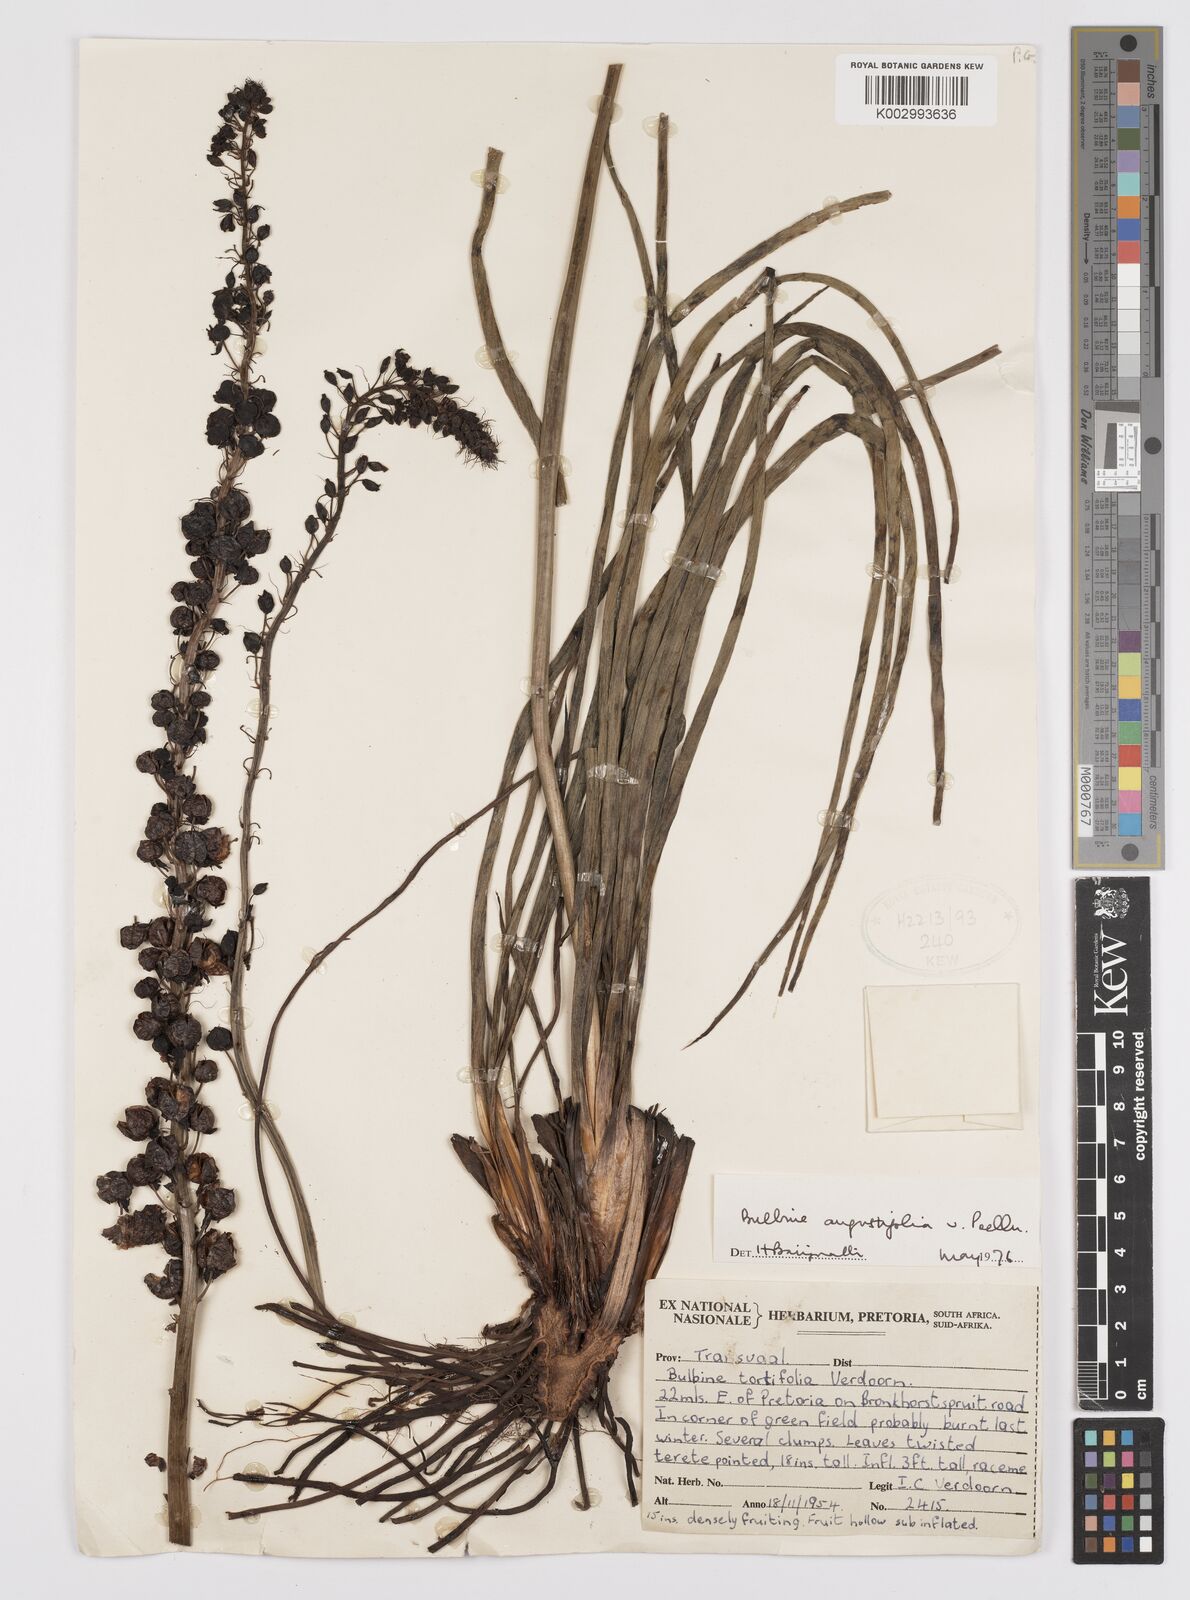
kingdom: Plantae
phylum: Tracheophyta
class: Liliopsida
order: Asparagales
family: Asphodelaceae
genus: Bulbine
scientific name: Bulbine angustifolia
